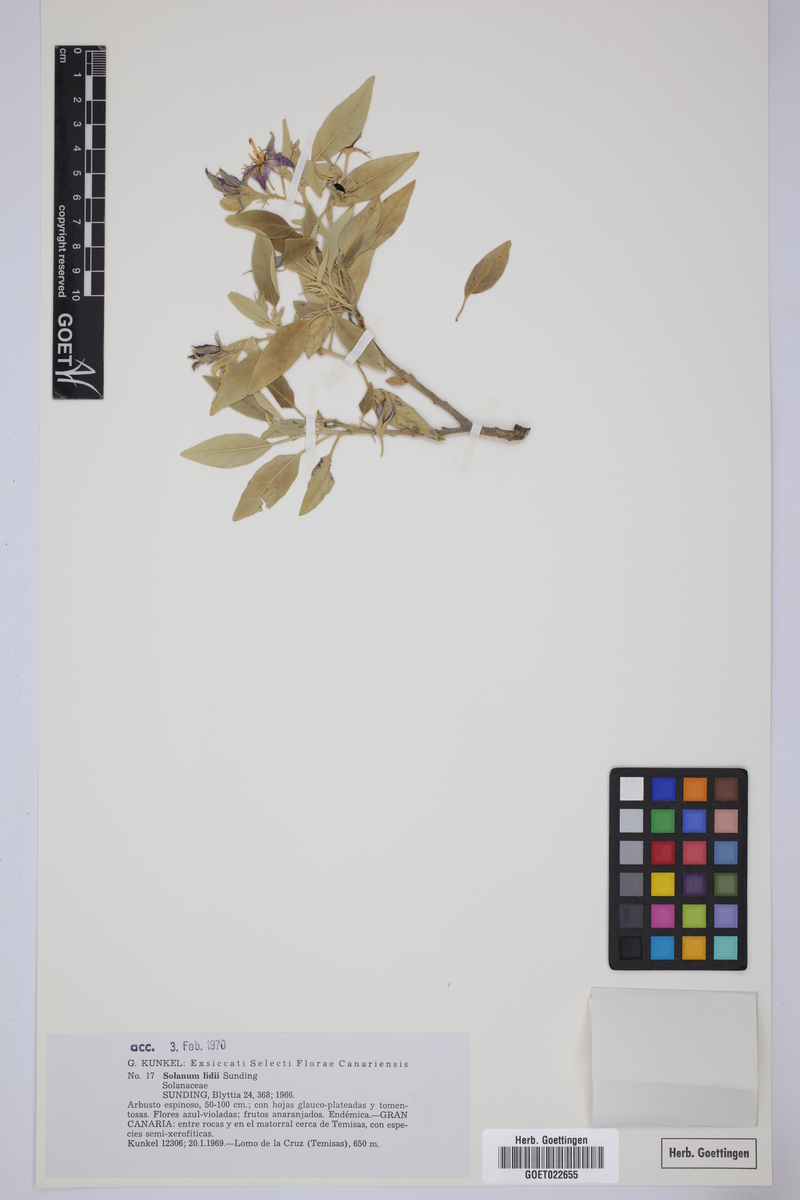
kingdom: Plantae
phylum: Tracheophyta
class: Magnoliopsida
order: Solanales
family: Solanaceae
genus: Solanum
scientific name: Solanum lidii
